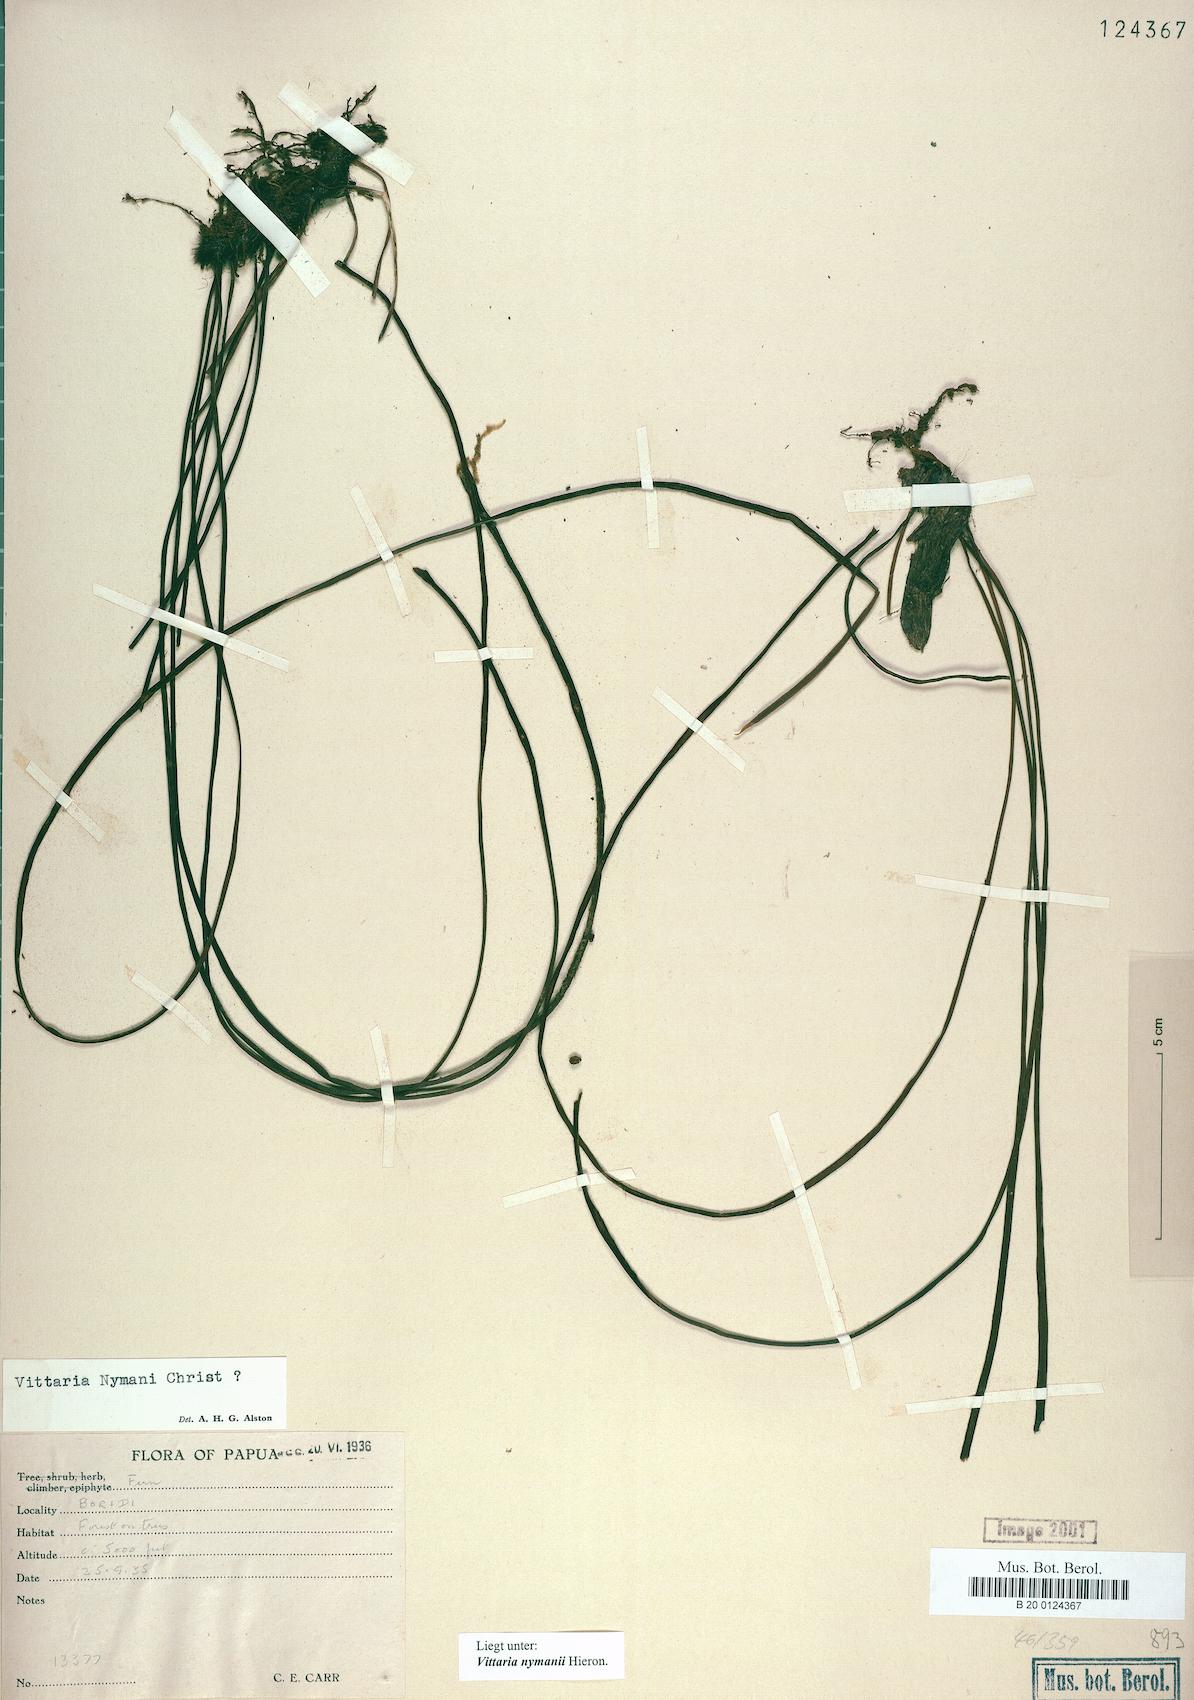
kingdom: Plantae
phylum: Tracheophyta
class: Polypodiopsida
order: Polypodiales
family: Pteridaceae
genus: Haplopteris
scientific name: Haplopteris elongata
